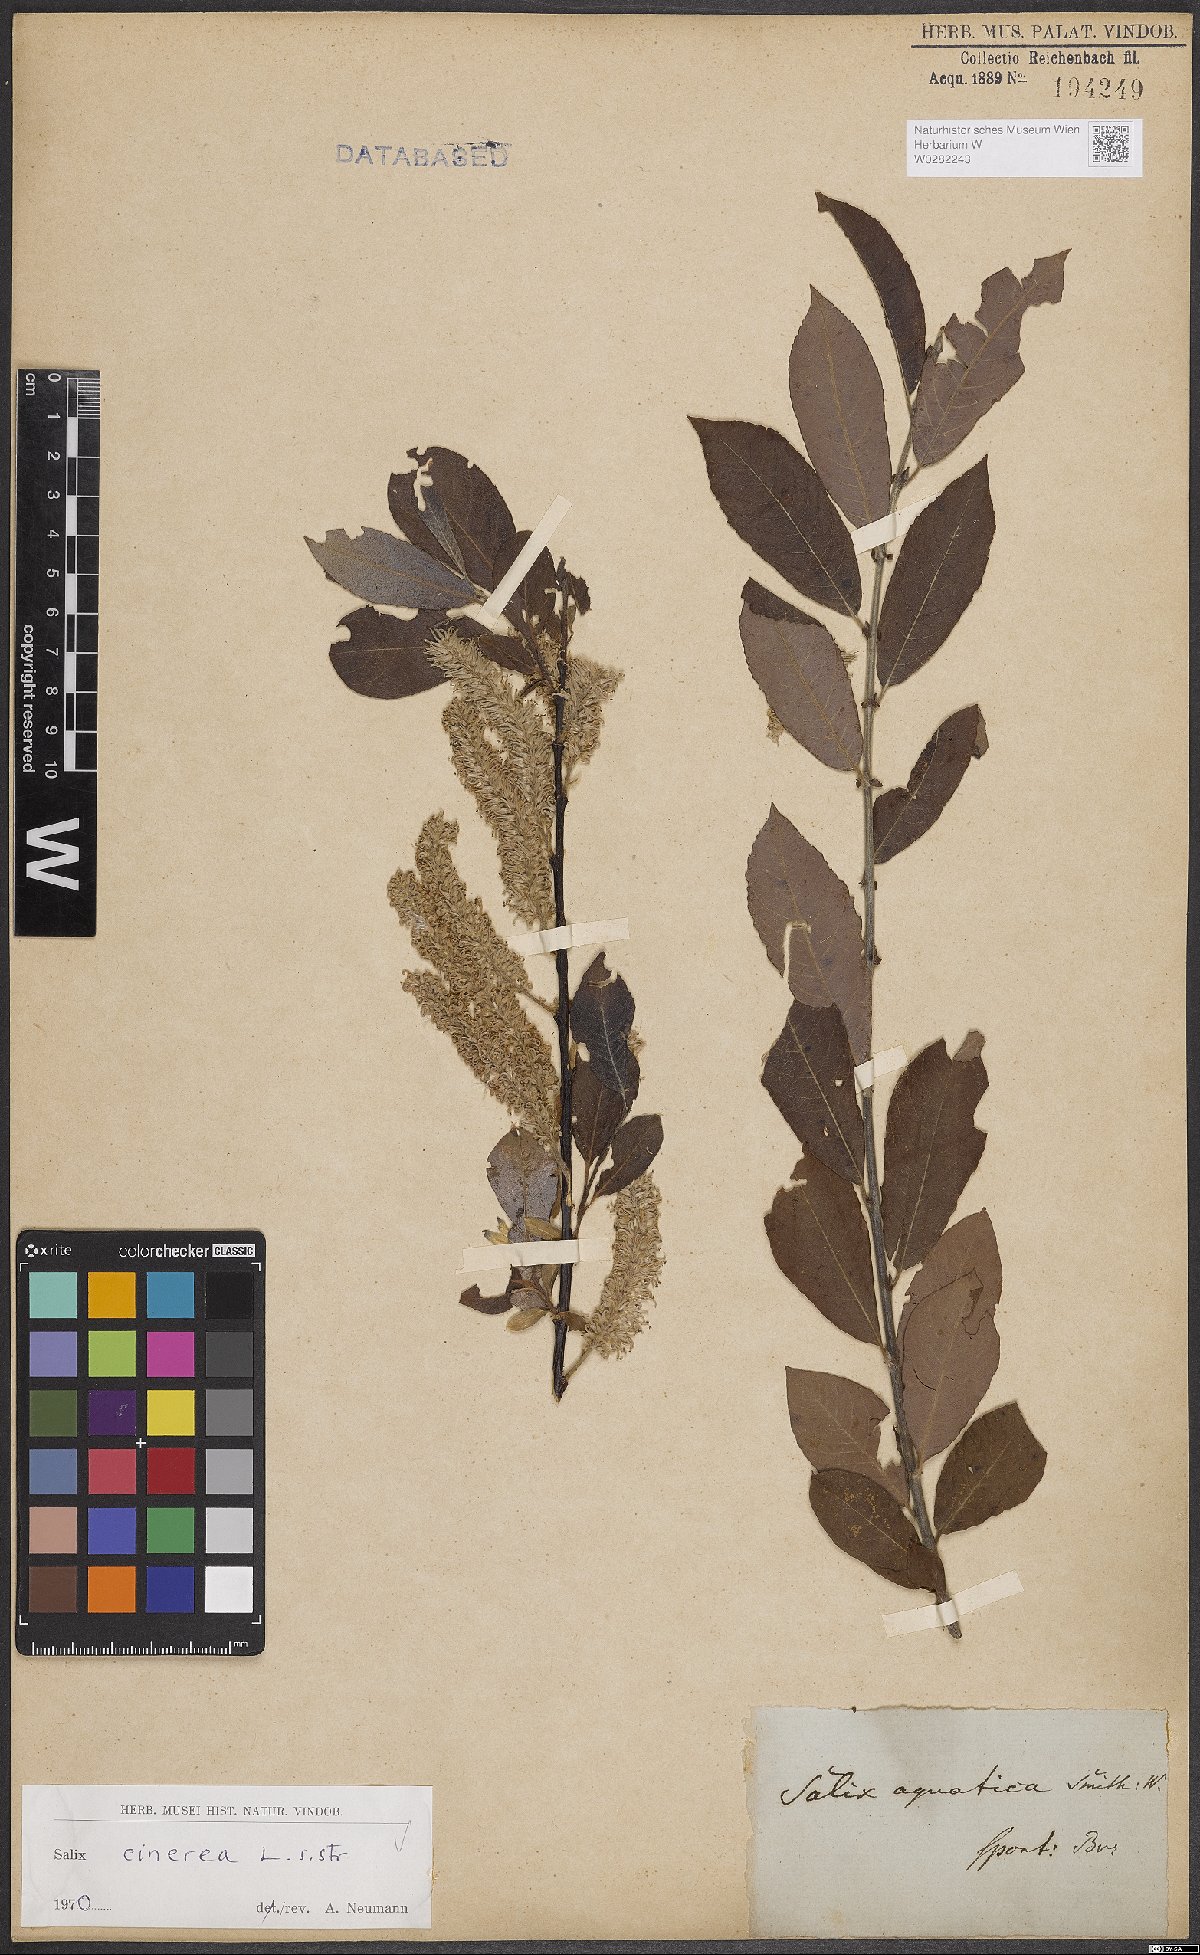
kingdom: Plantae
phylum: Tracheophyta
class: Magnoliopsida
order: Malpighiales
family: Salicaceae
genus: Salix
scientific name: Salix cinerea
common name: Common sallow
